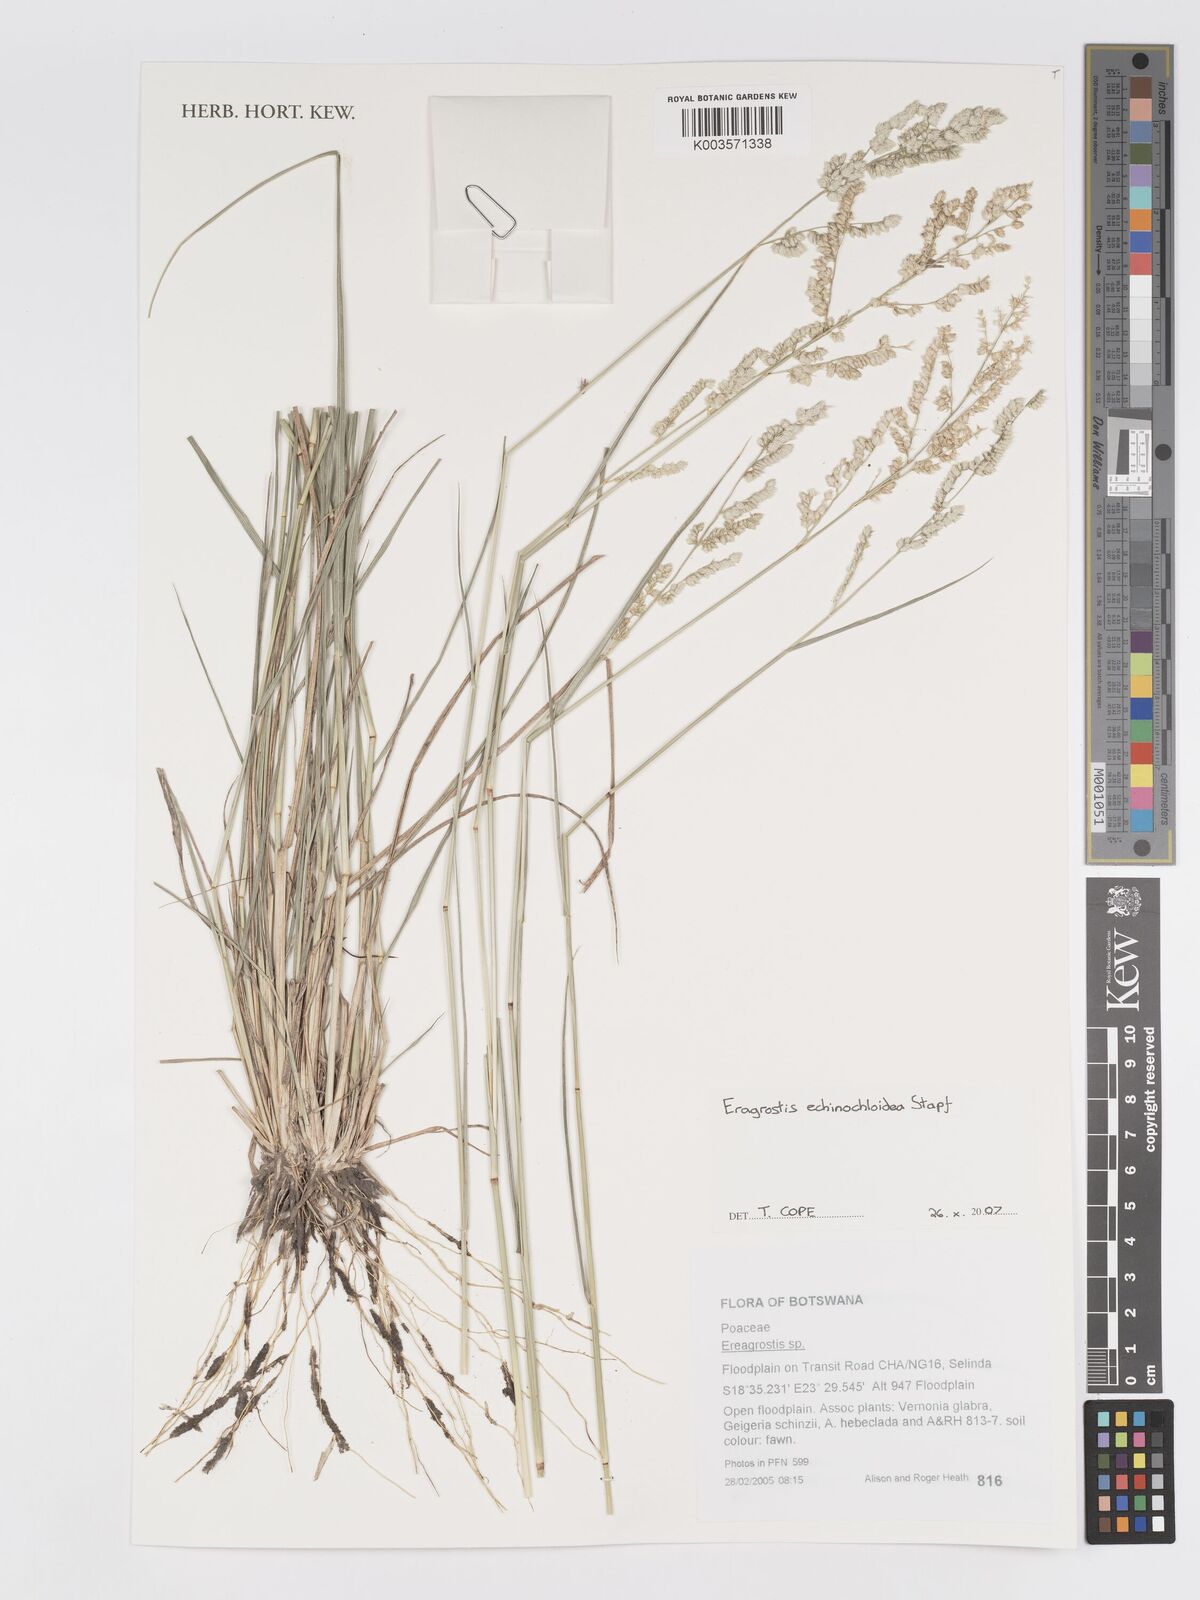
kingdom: Plantae
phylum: Tracheophyta
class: Liliopsida
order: Poales
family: Poaceae
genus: Eragrostis
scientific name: Eragrostis echinochloidea
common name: African lovegrass
